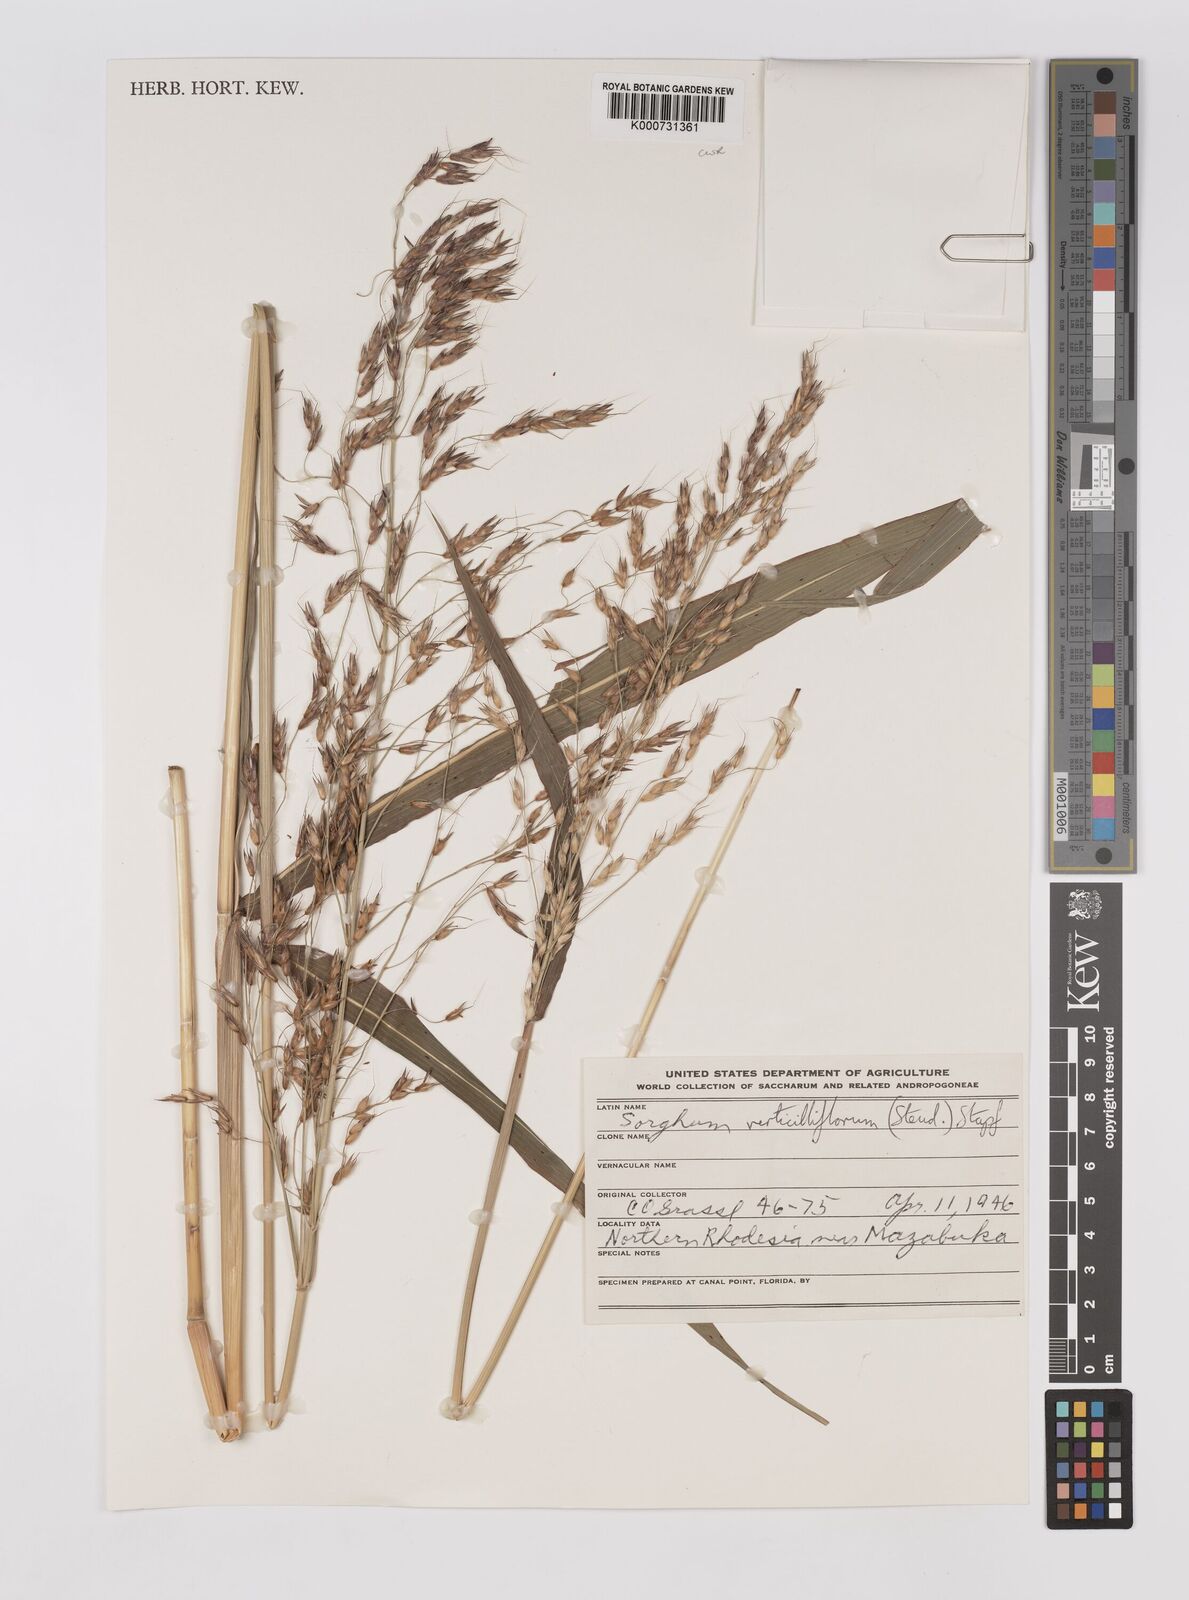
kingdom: Plantae
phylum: Tracheophyta
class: Liliopsida
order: Poales
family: Poaceae
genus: Sorghum
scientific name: Sorghum arundinaceum
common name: Sorghum
